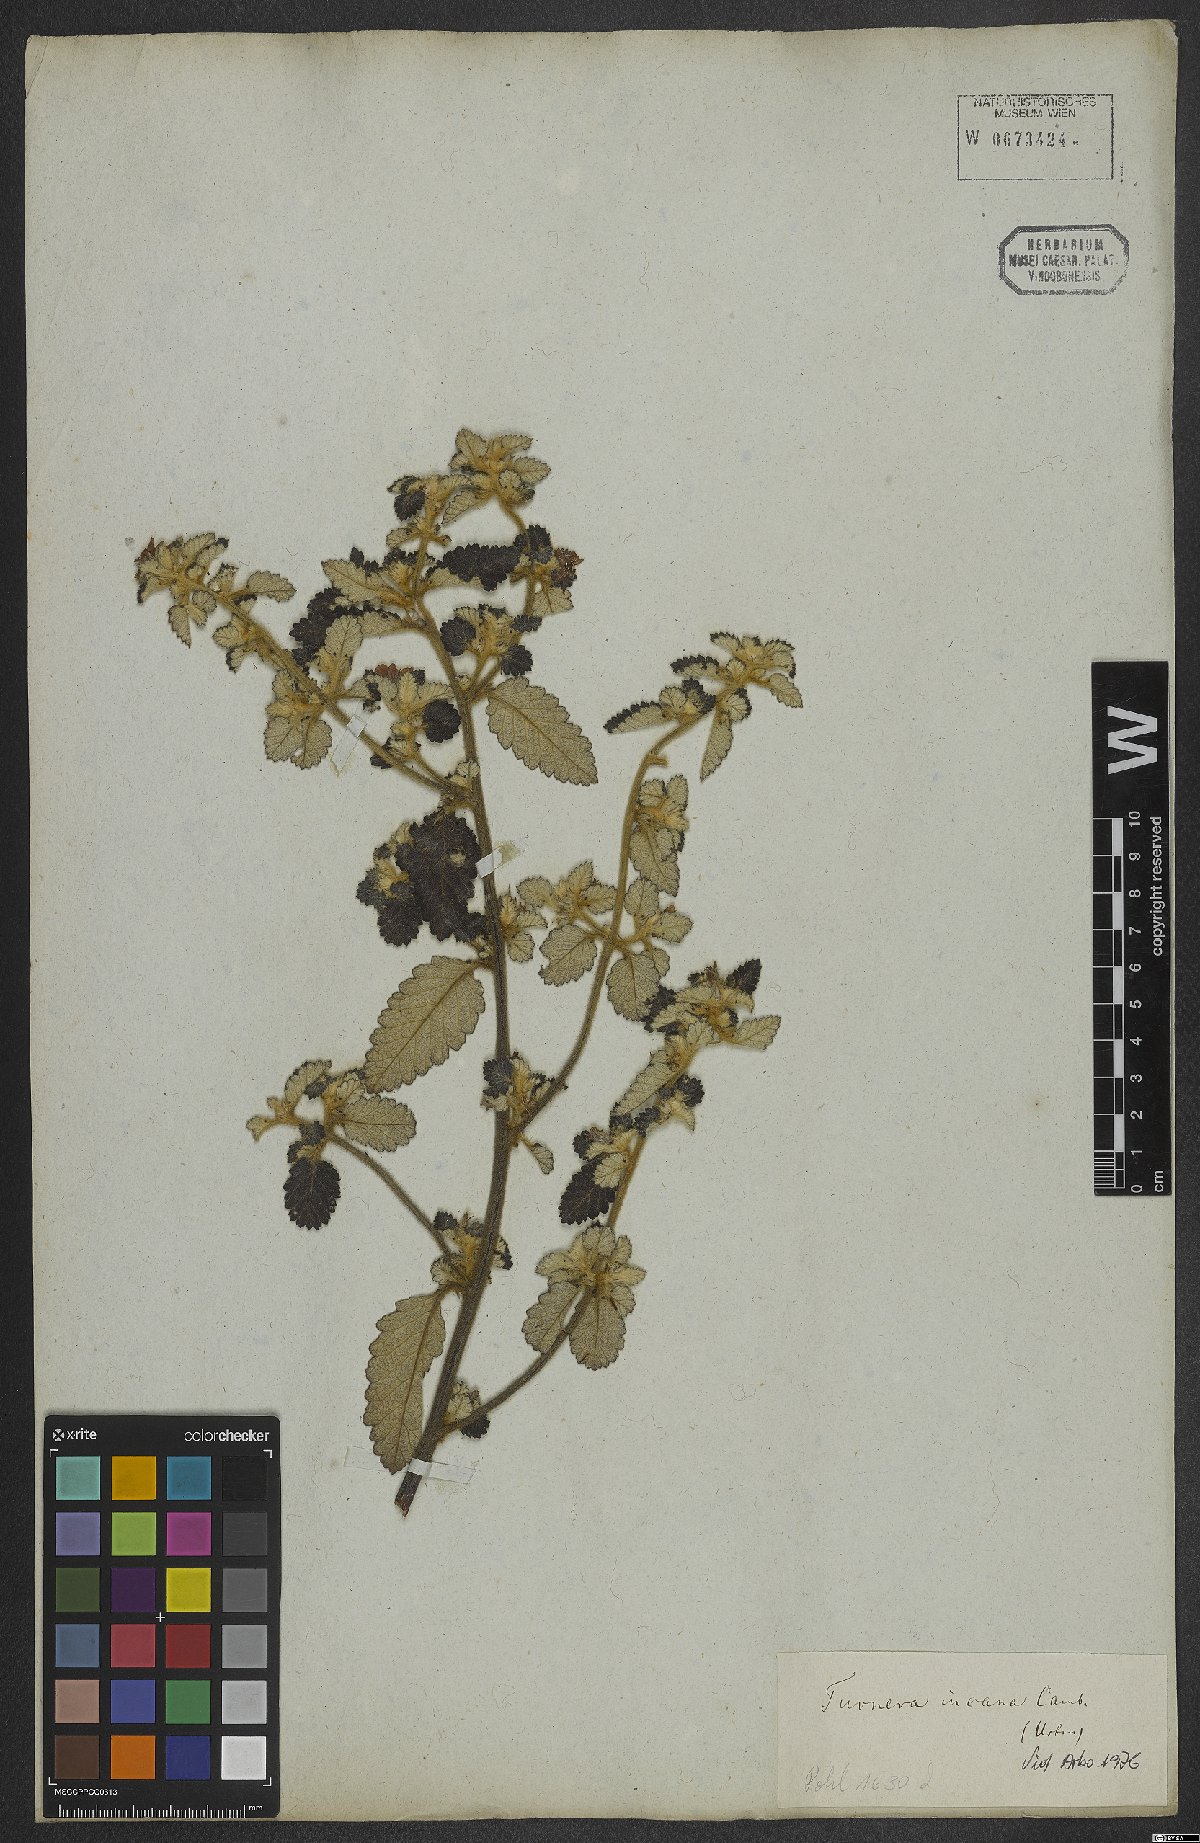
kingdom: Plantae
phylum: Tracheophyta
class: Magnoliopsida
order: Malpighiales
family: Turneraceae
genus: Turnera
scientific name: Turnera incana
